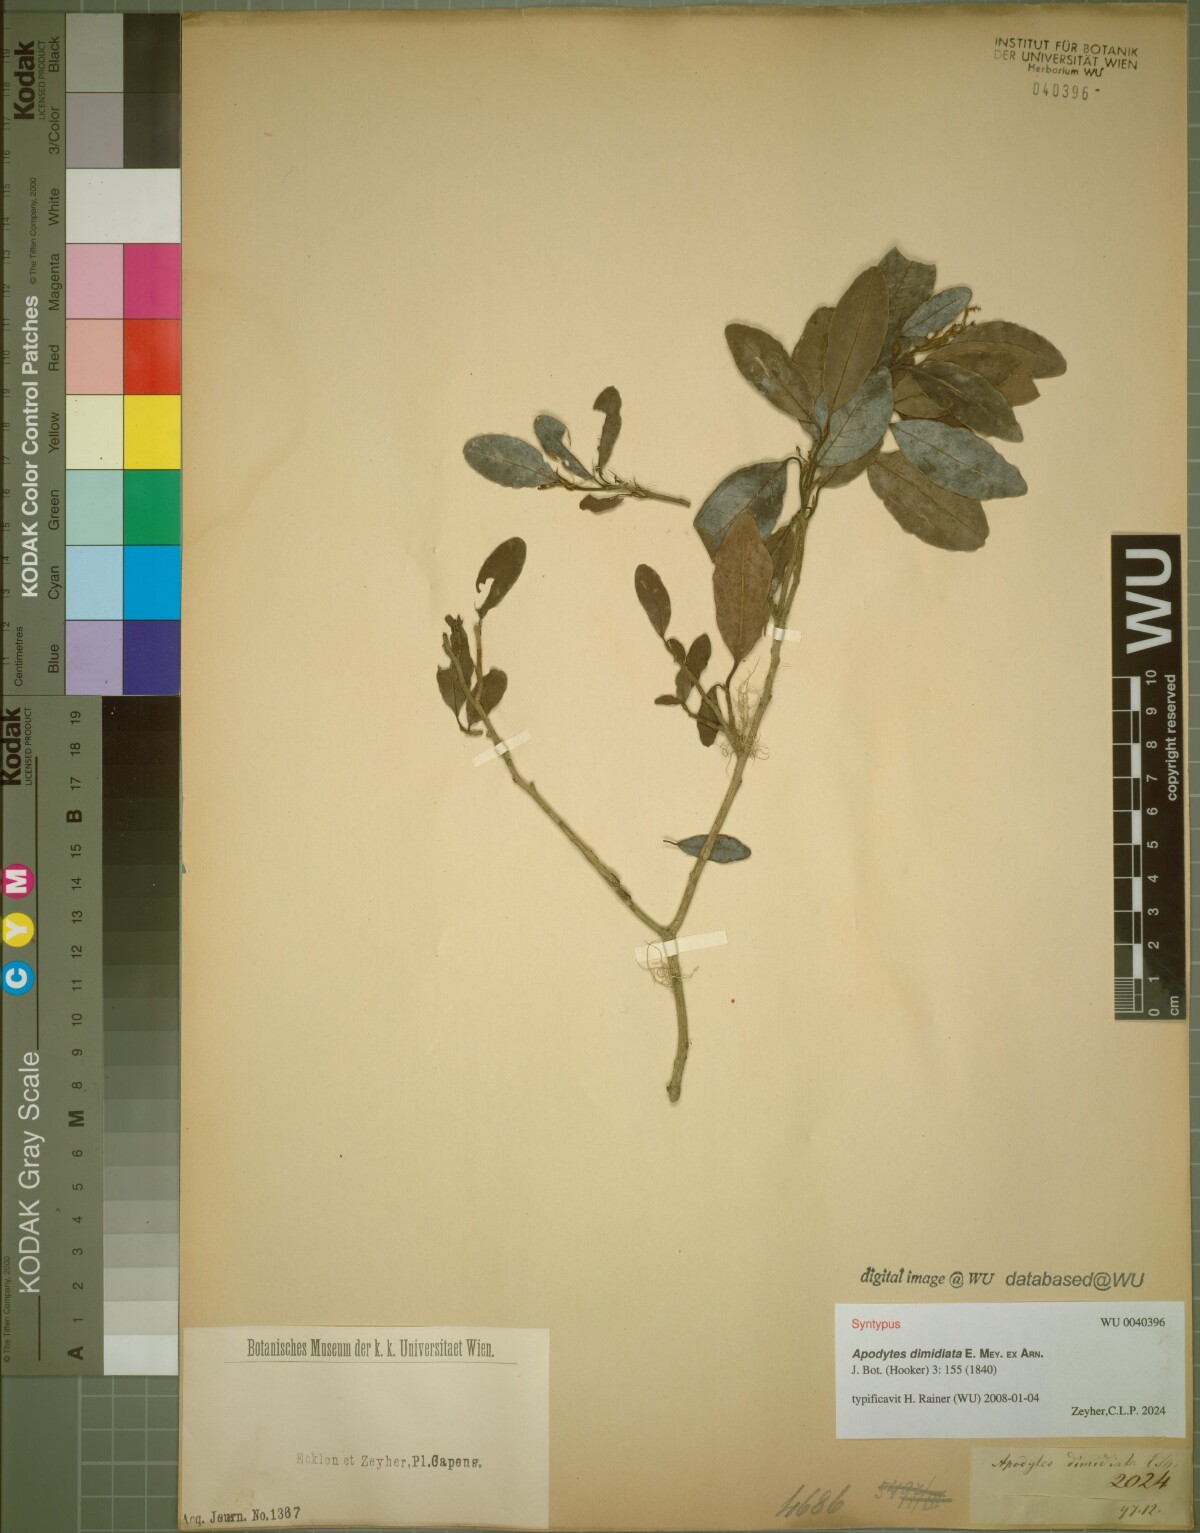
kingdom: Plantae
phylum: Tracheophyta
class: Magnoliopsida
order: Metteniusales
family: Metteniusaceae
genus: Apodytes
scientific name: Apodytes dimidiata
